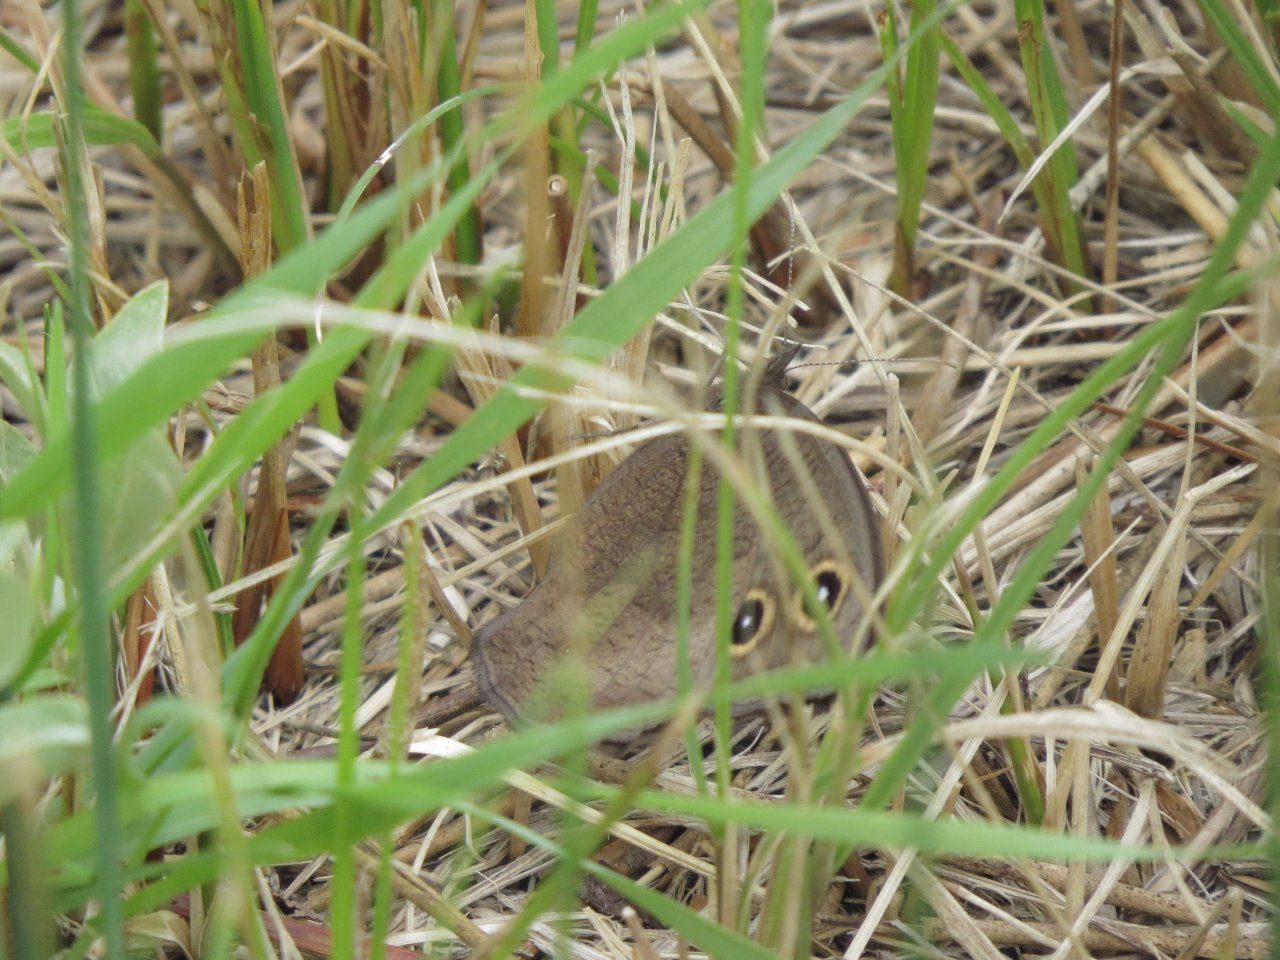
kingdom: Animalia
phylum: Arthropoda
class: Insecta
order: Lepidoptera
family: Nymphalidae
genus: Cercyonis
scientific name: Cercyonis pegala
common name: Common Wood-Nymph
